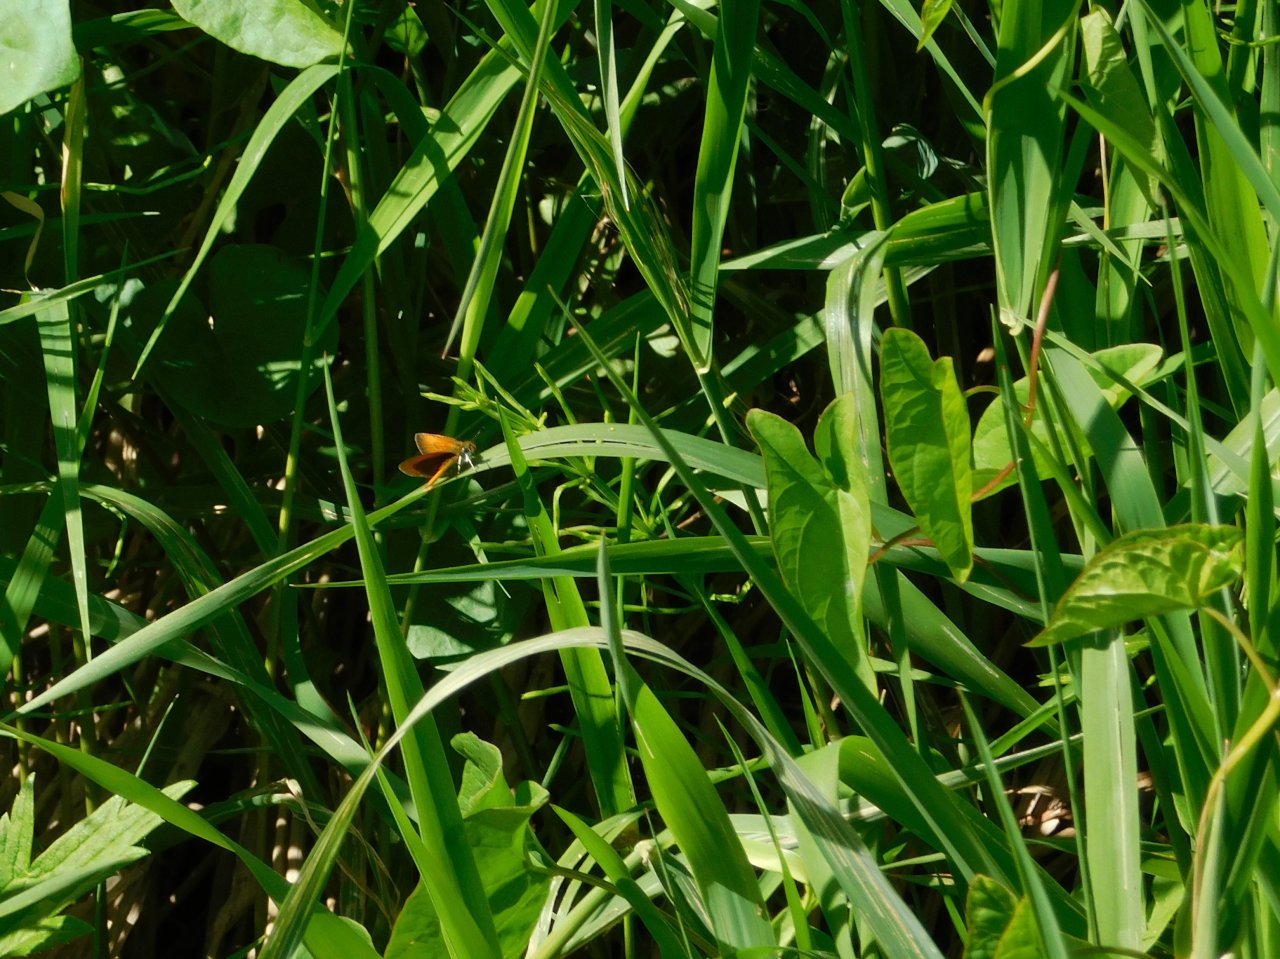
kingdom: Animalia
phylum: Arthropoda
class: Insecta
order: Lepidoptera
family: Hesperiidae
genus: Ancyloxypha
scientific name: Ancyloxypha numitor
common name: Least Skipper
